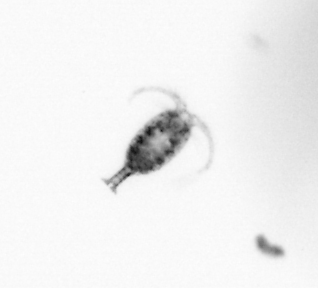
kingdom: Animalia
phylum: Arthropoda
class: Copepoda
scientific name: Copepoda
